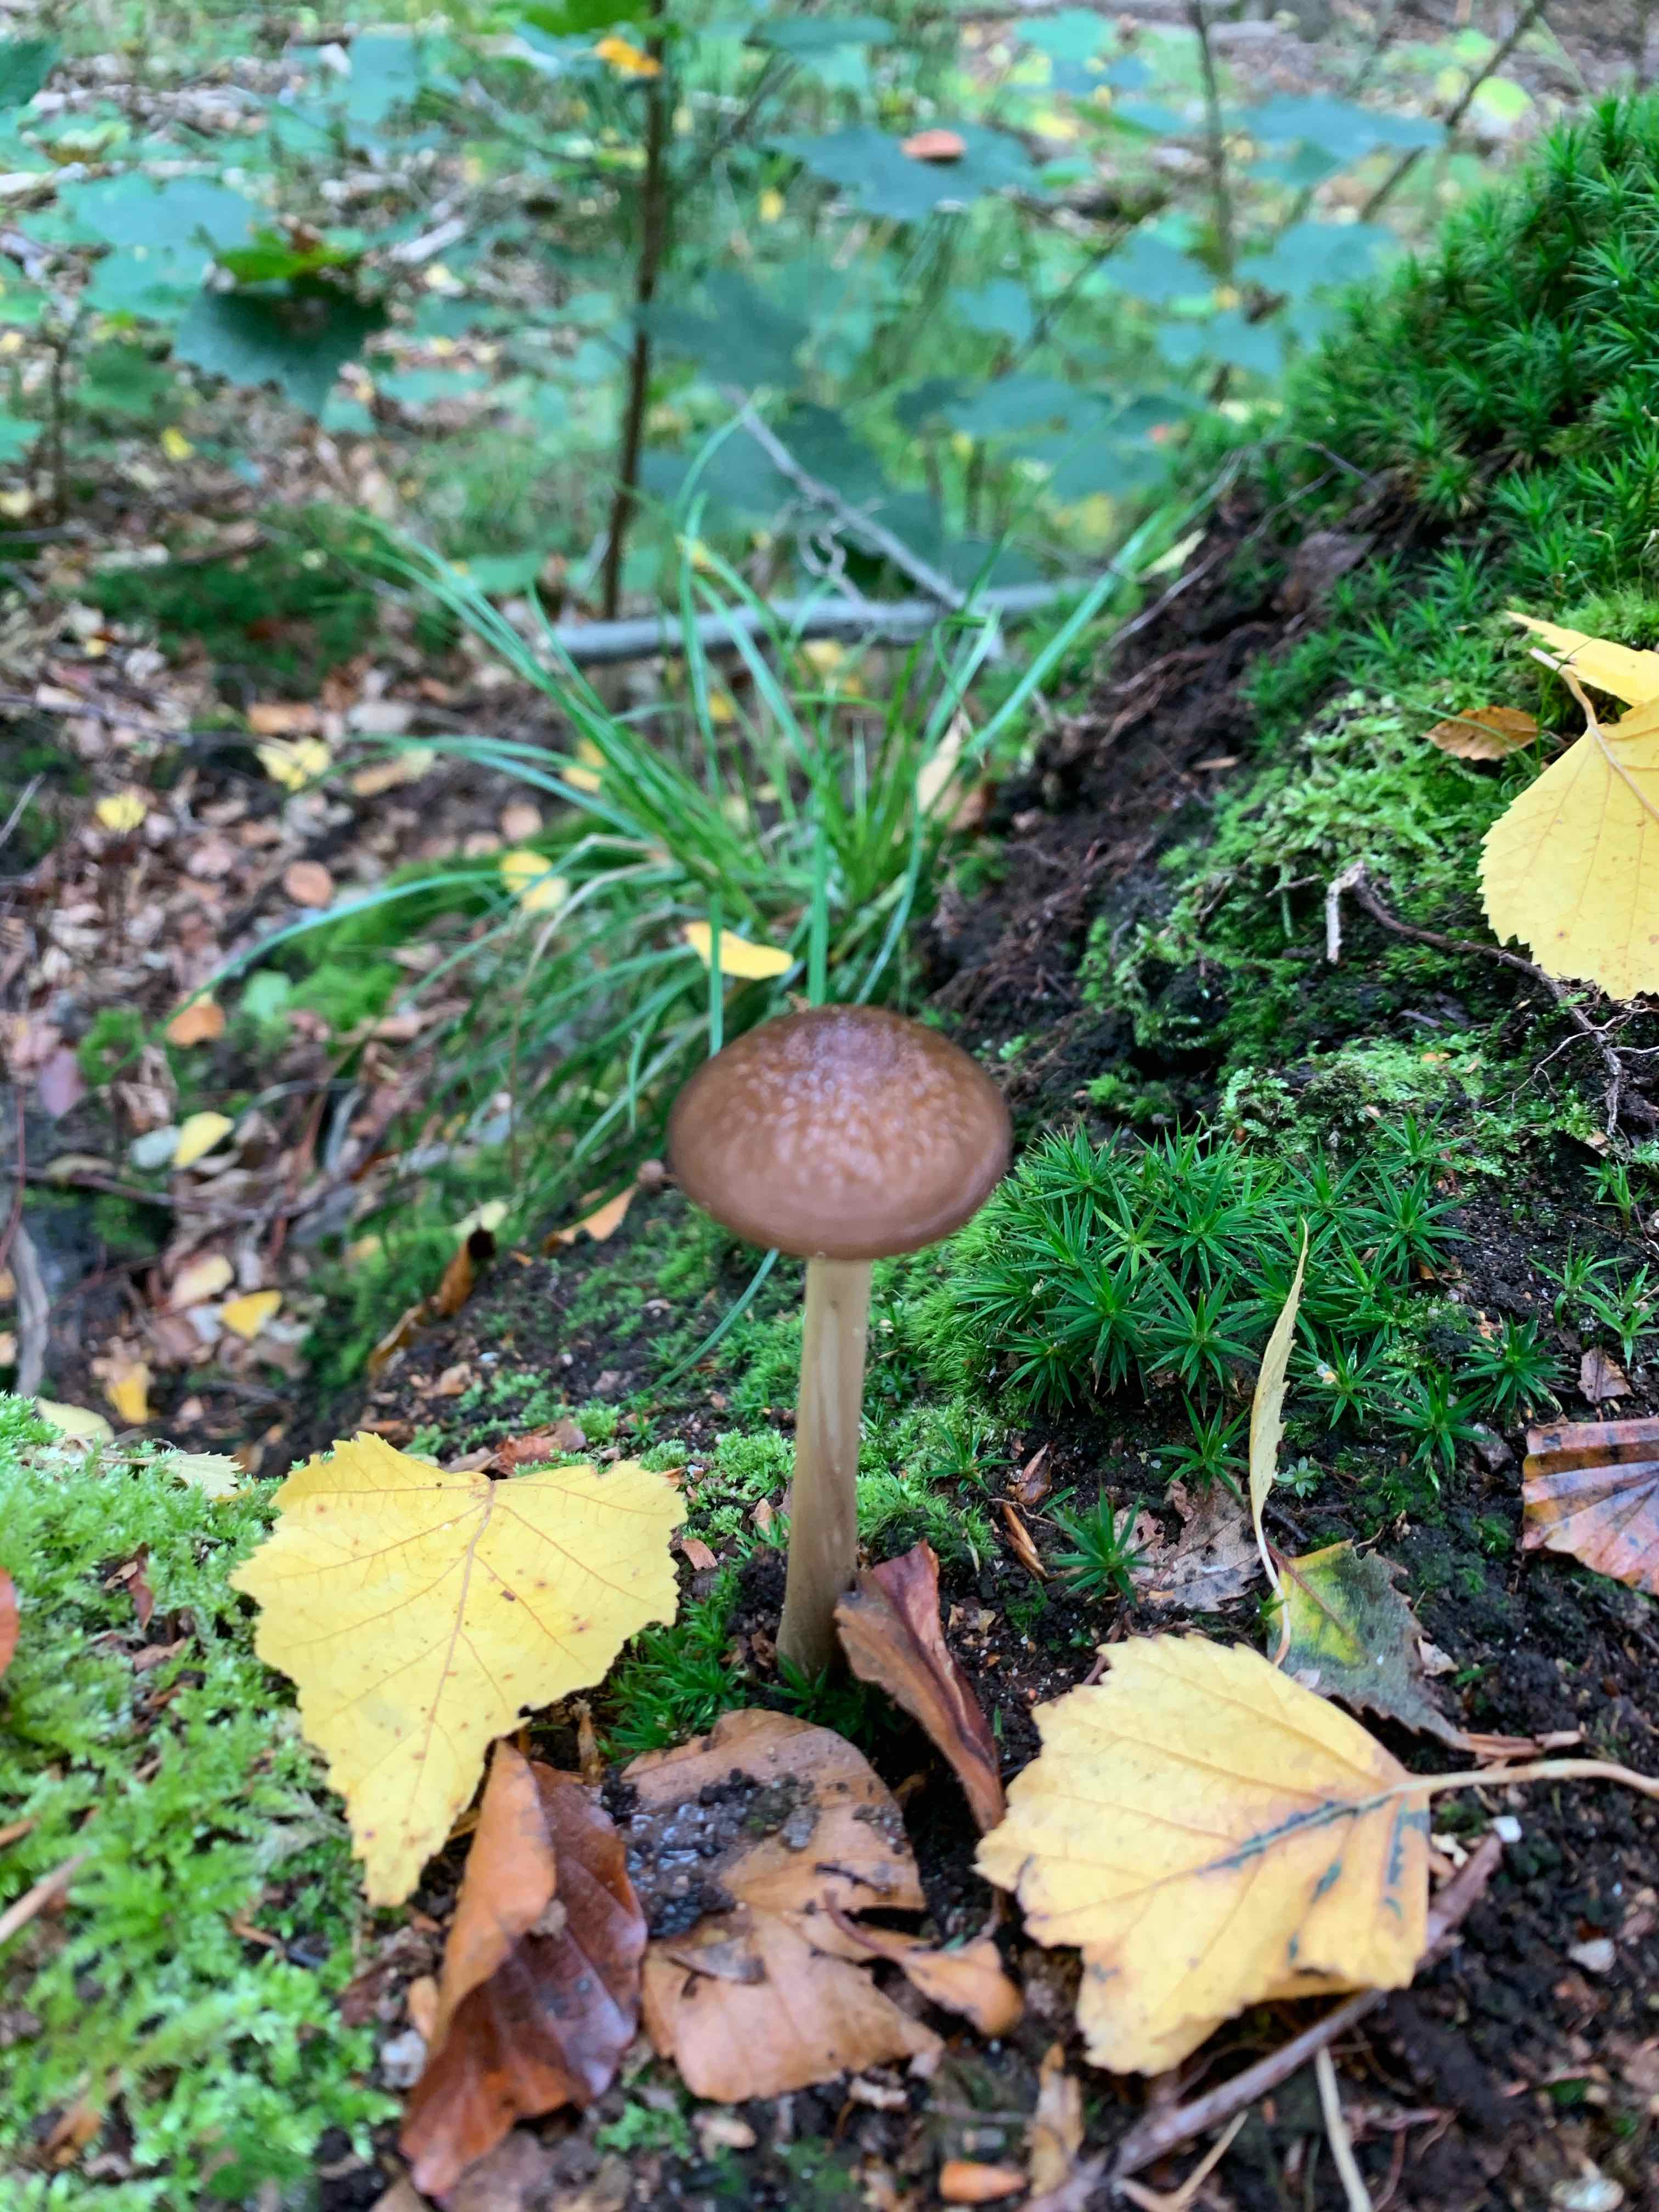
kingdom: Fungi
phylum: Basidiomycota
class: Agaricomycetes
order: Agaricales
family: Physalacriaceae
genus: Hymenopellis
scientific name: Hymenopellis radicata
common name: almindelig pælerodshat
